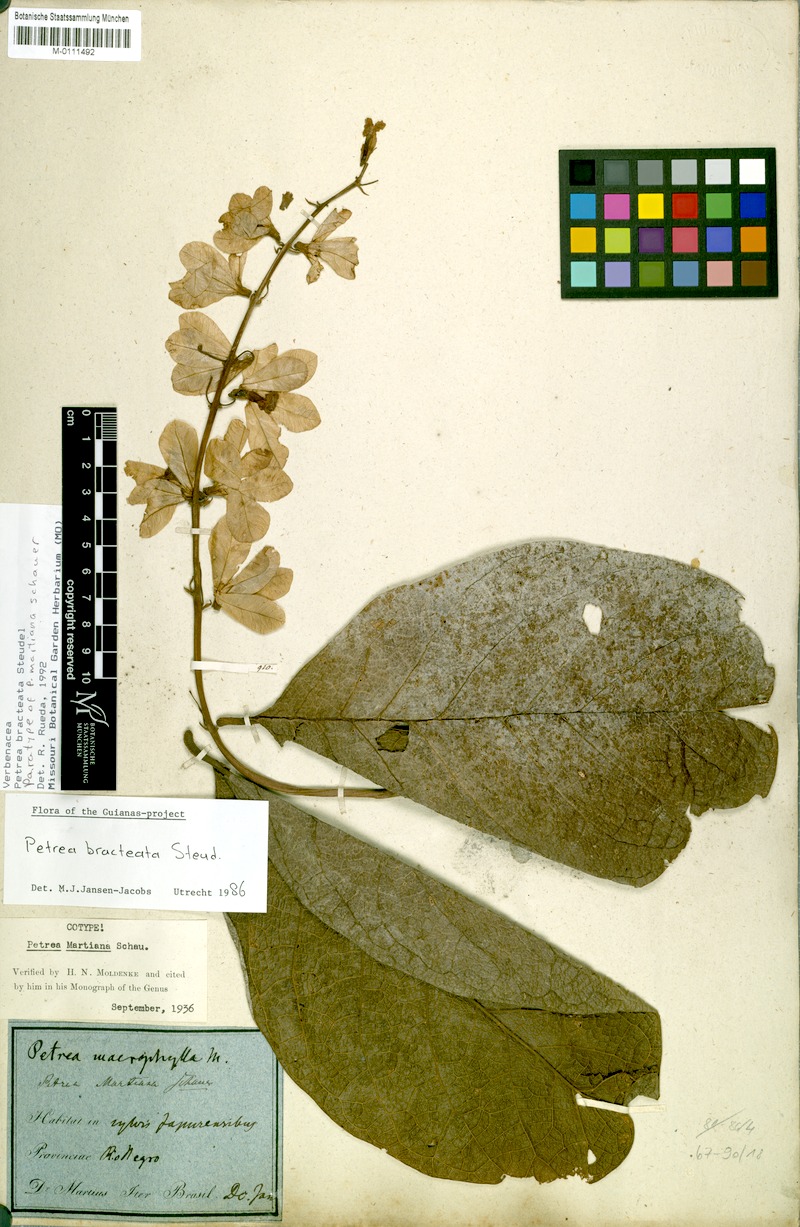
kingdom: Plantae
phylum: Tracheophyta
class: Magnoliopsida
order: Lamiales
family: Verbenaceae
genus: Petrea
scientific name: Petrea bracteata
